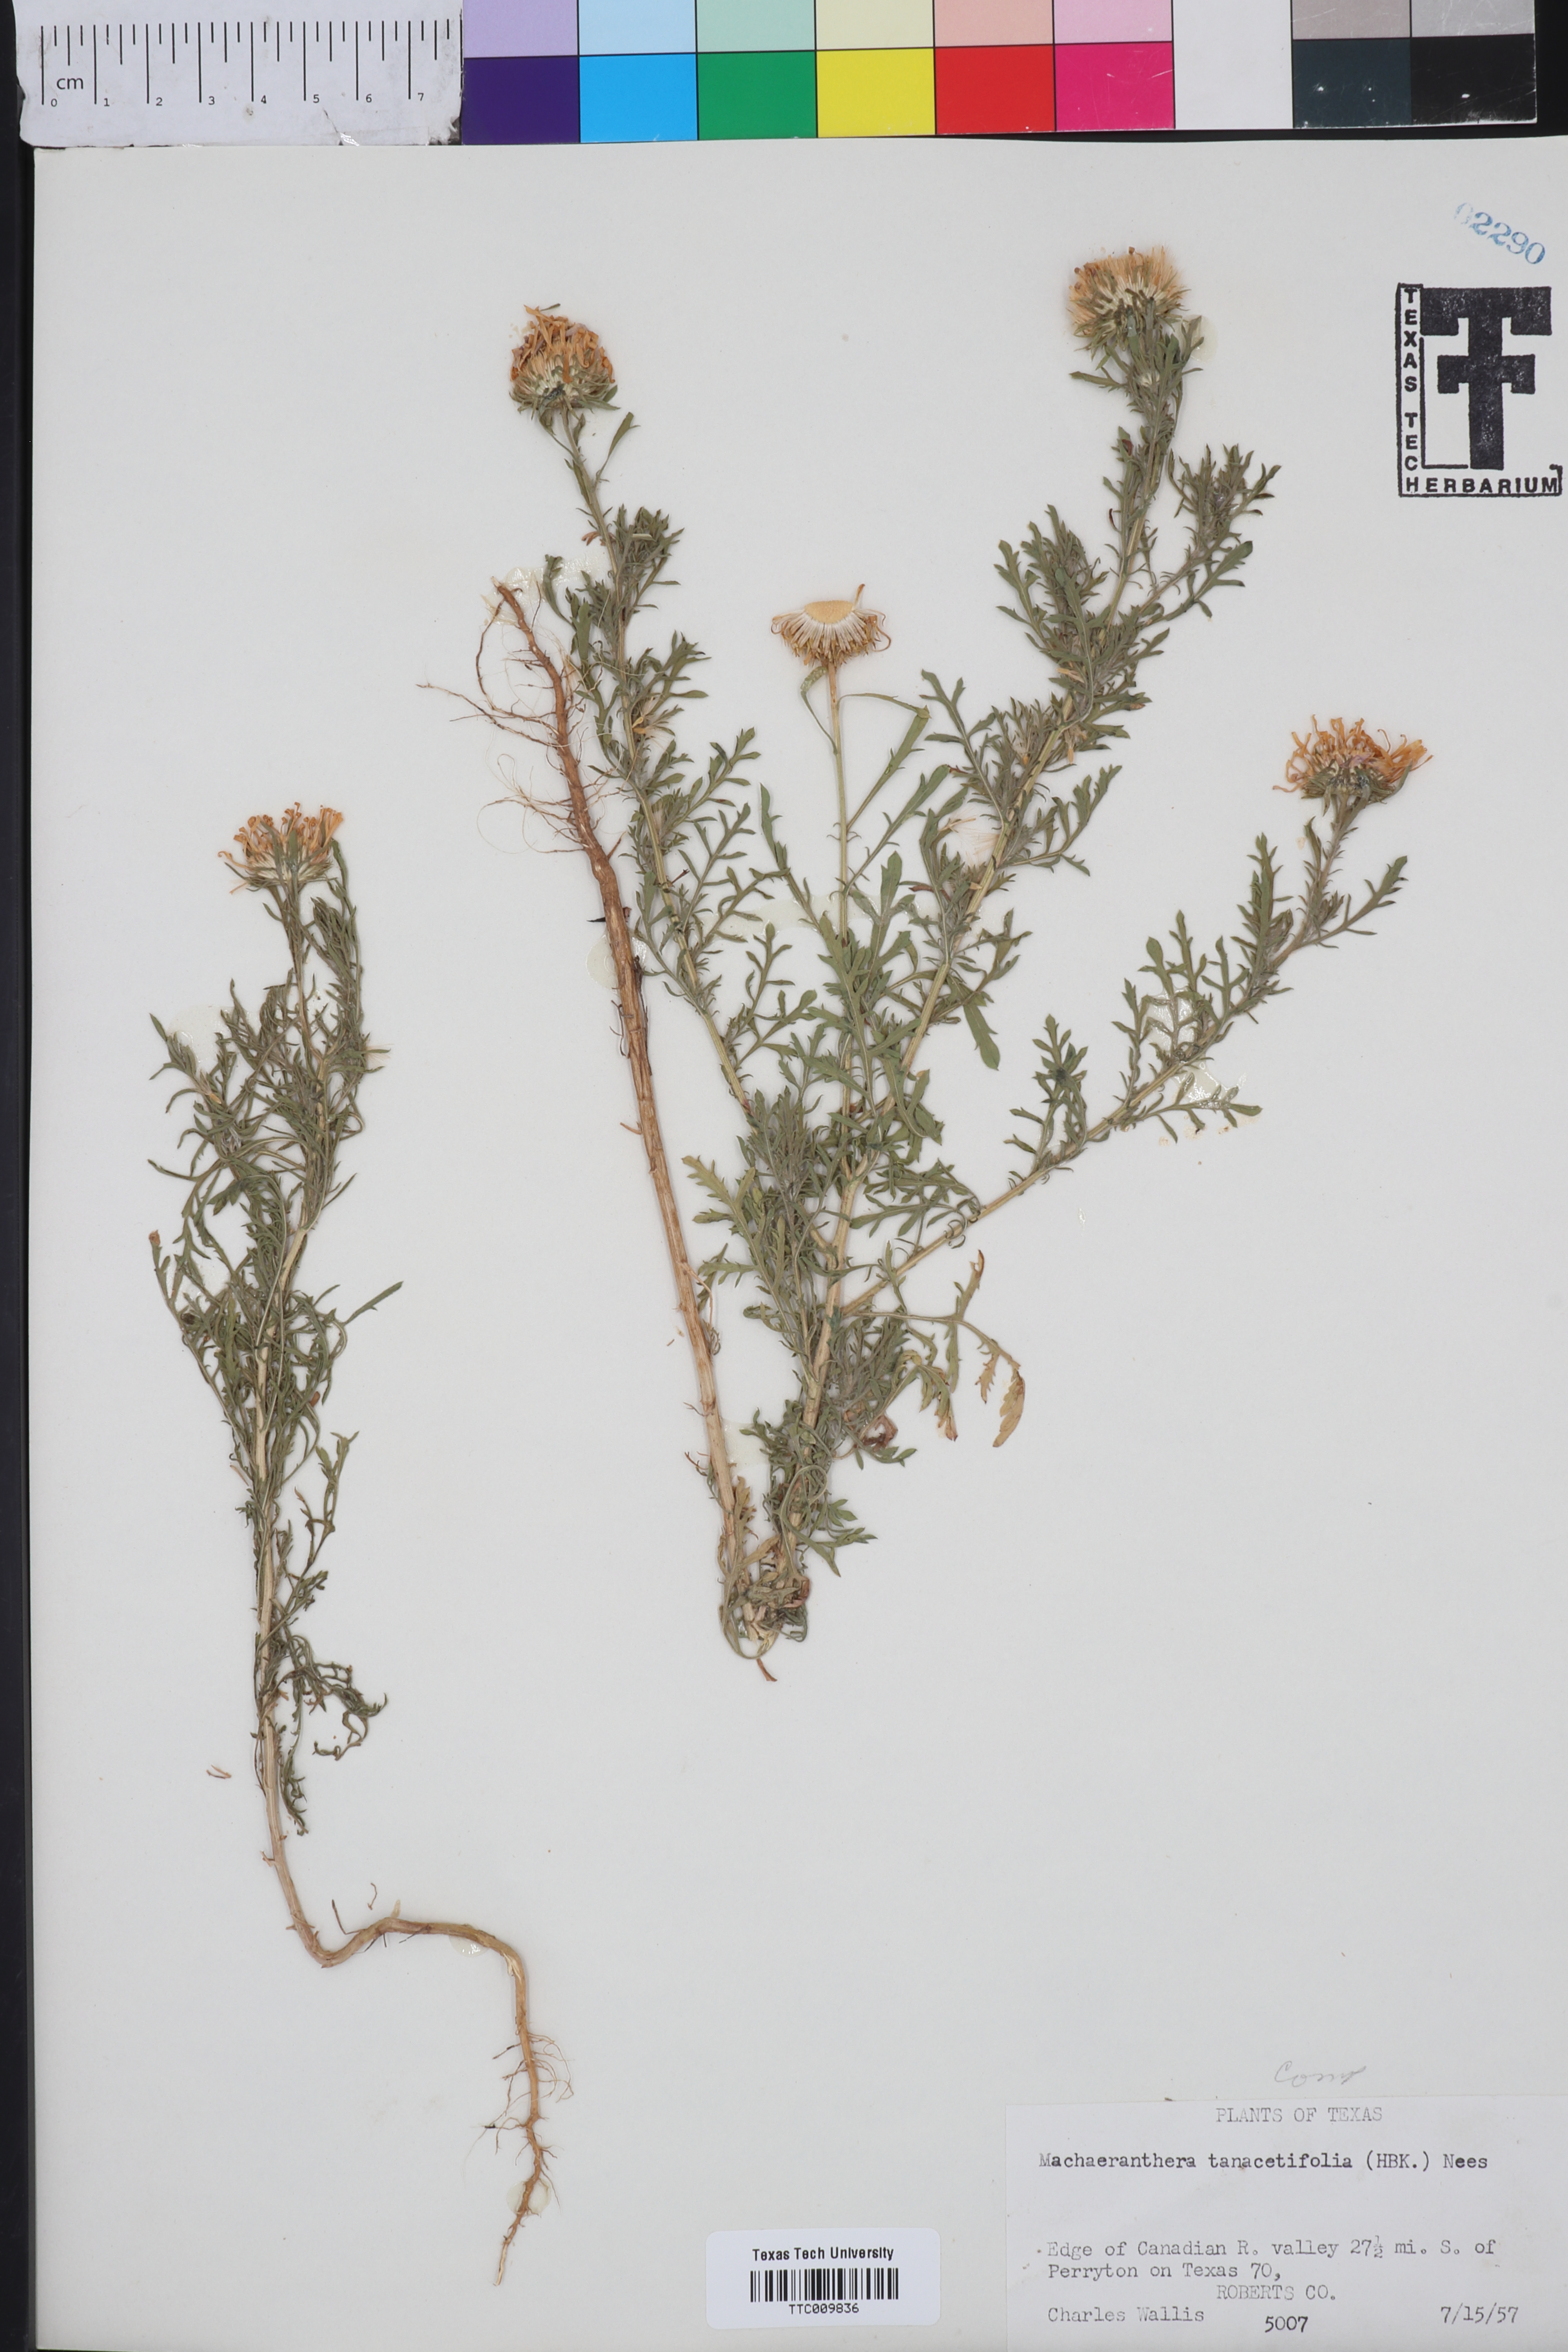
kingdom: Plantae
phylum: Tracheophyta
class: Magnoliopsida
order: Asterales
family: Asteraceae
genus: Machaeranthera
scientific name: Machaeranthera tanacetifolia
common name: Tansy-aster
